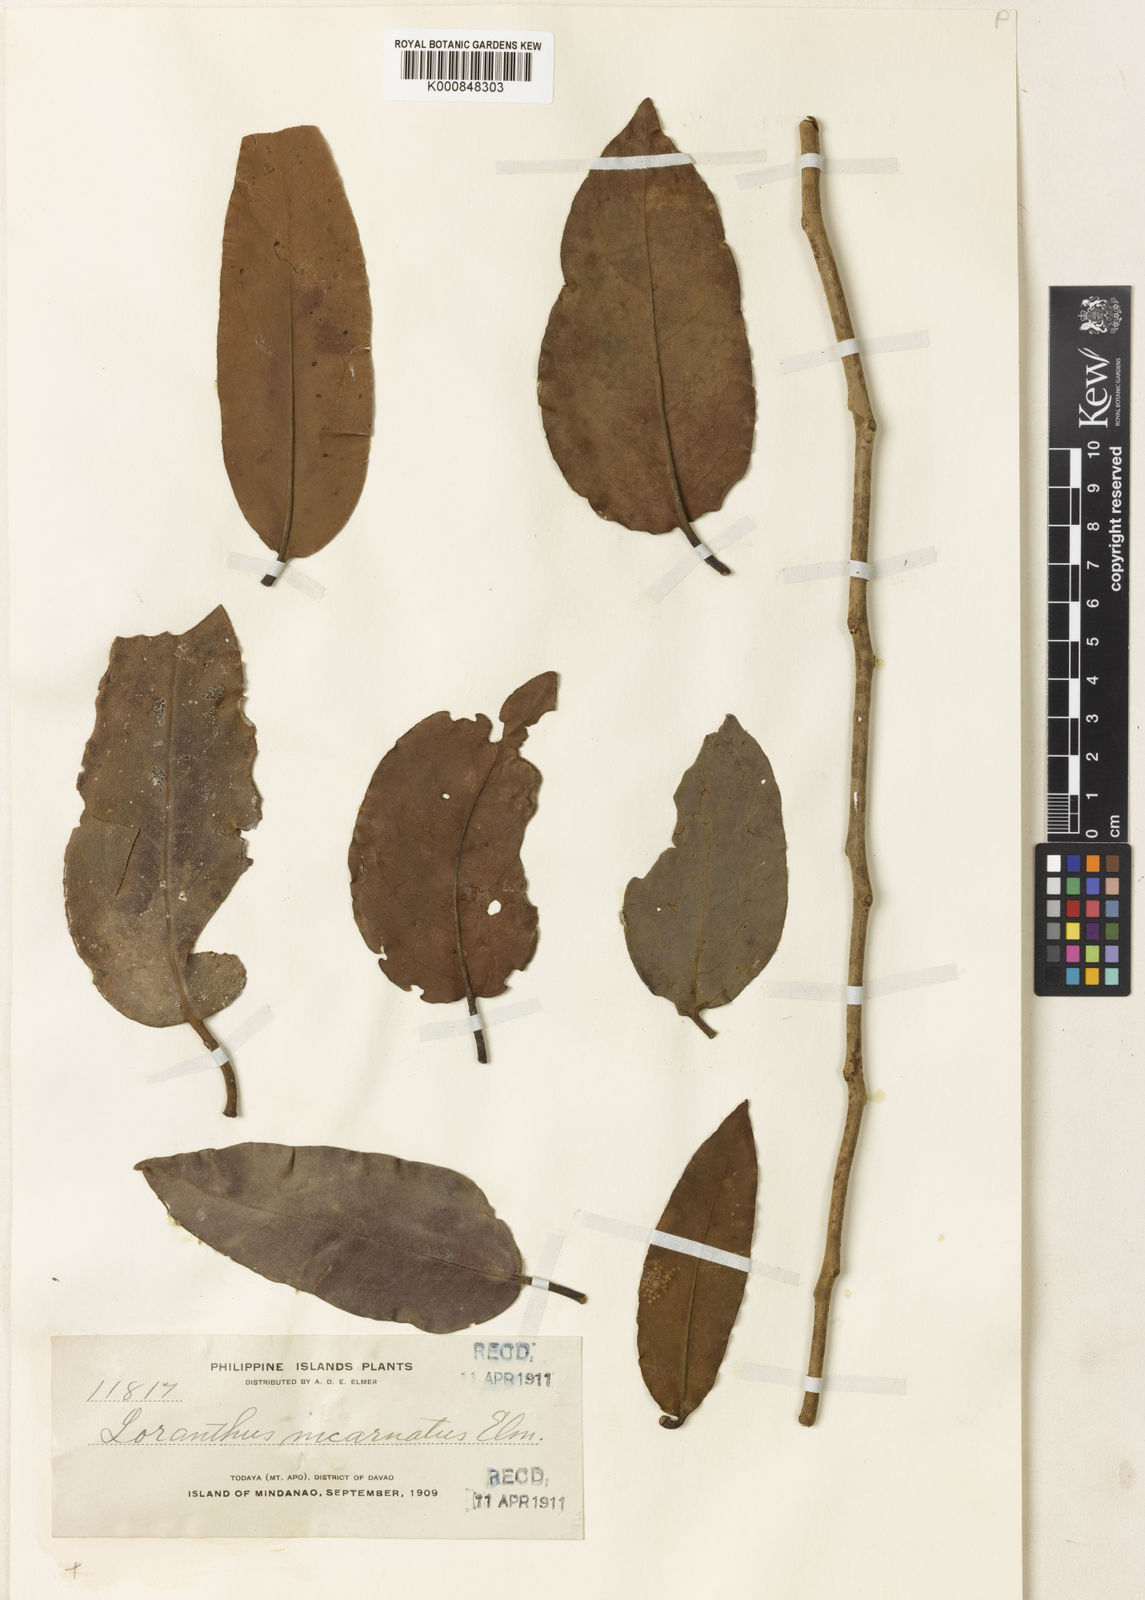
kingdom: Plantae
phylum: Tracheophyta
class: Magnoliopsida
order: Santalales
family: Loranthaceae
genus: Amyema
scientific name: Amyema
